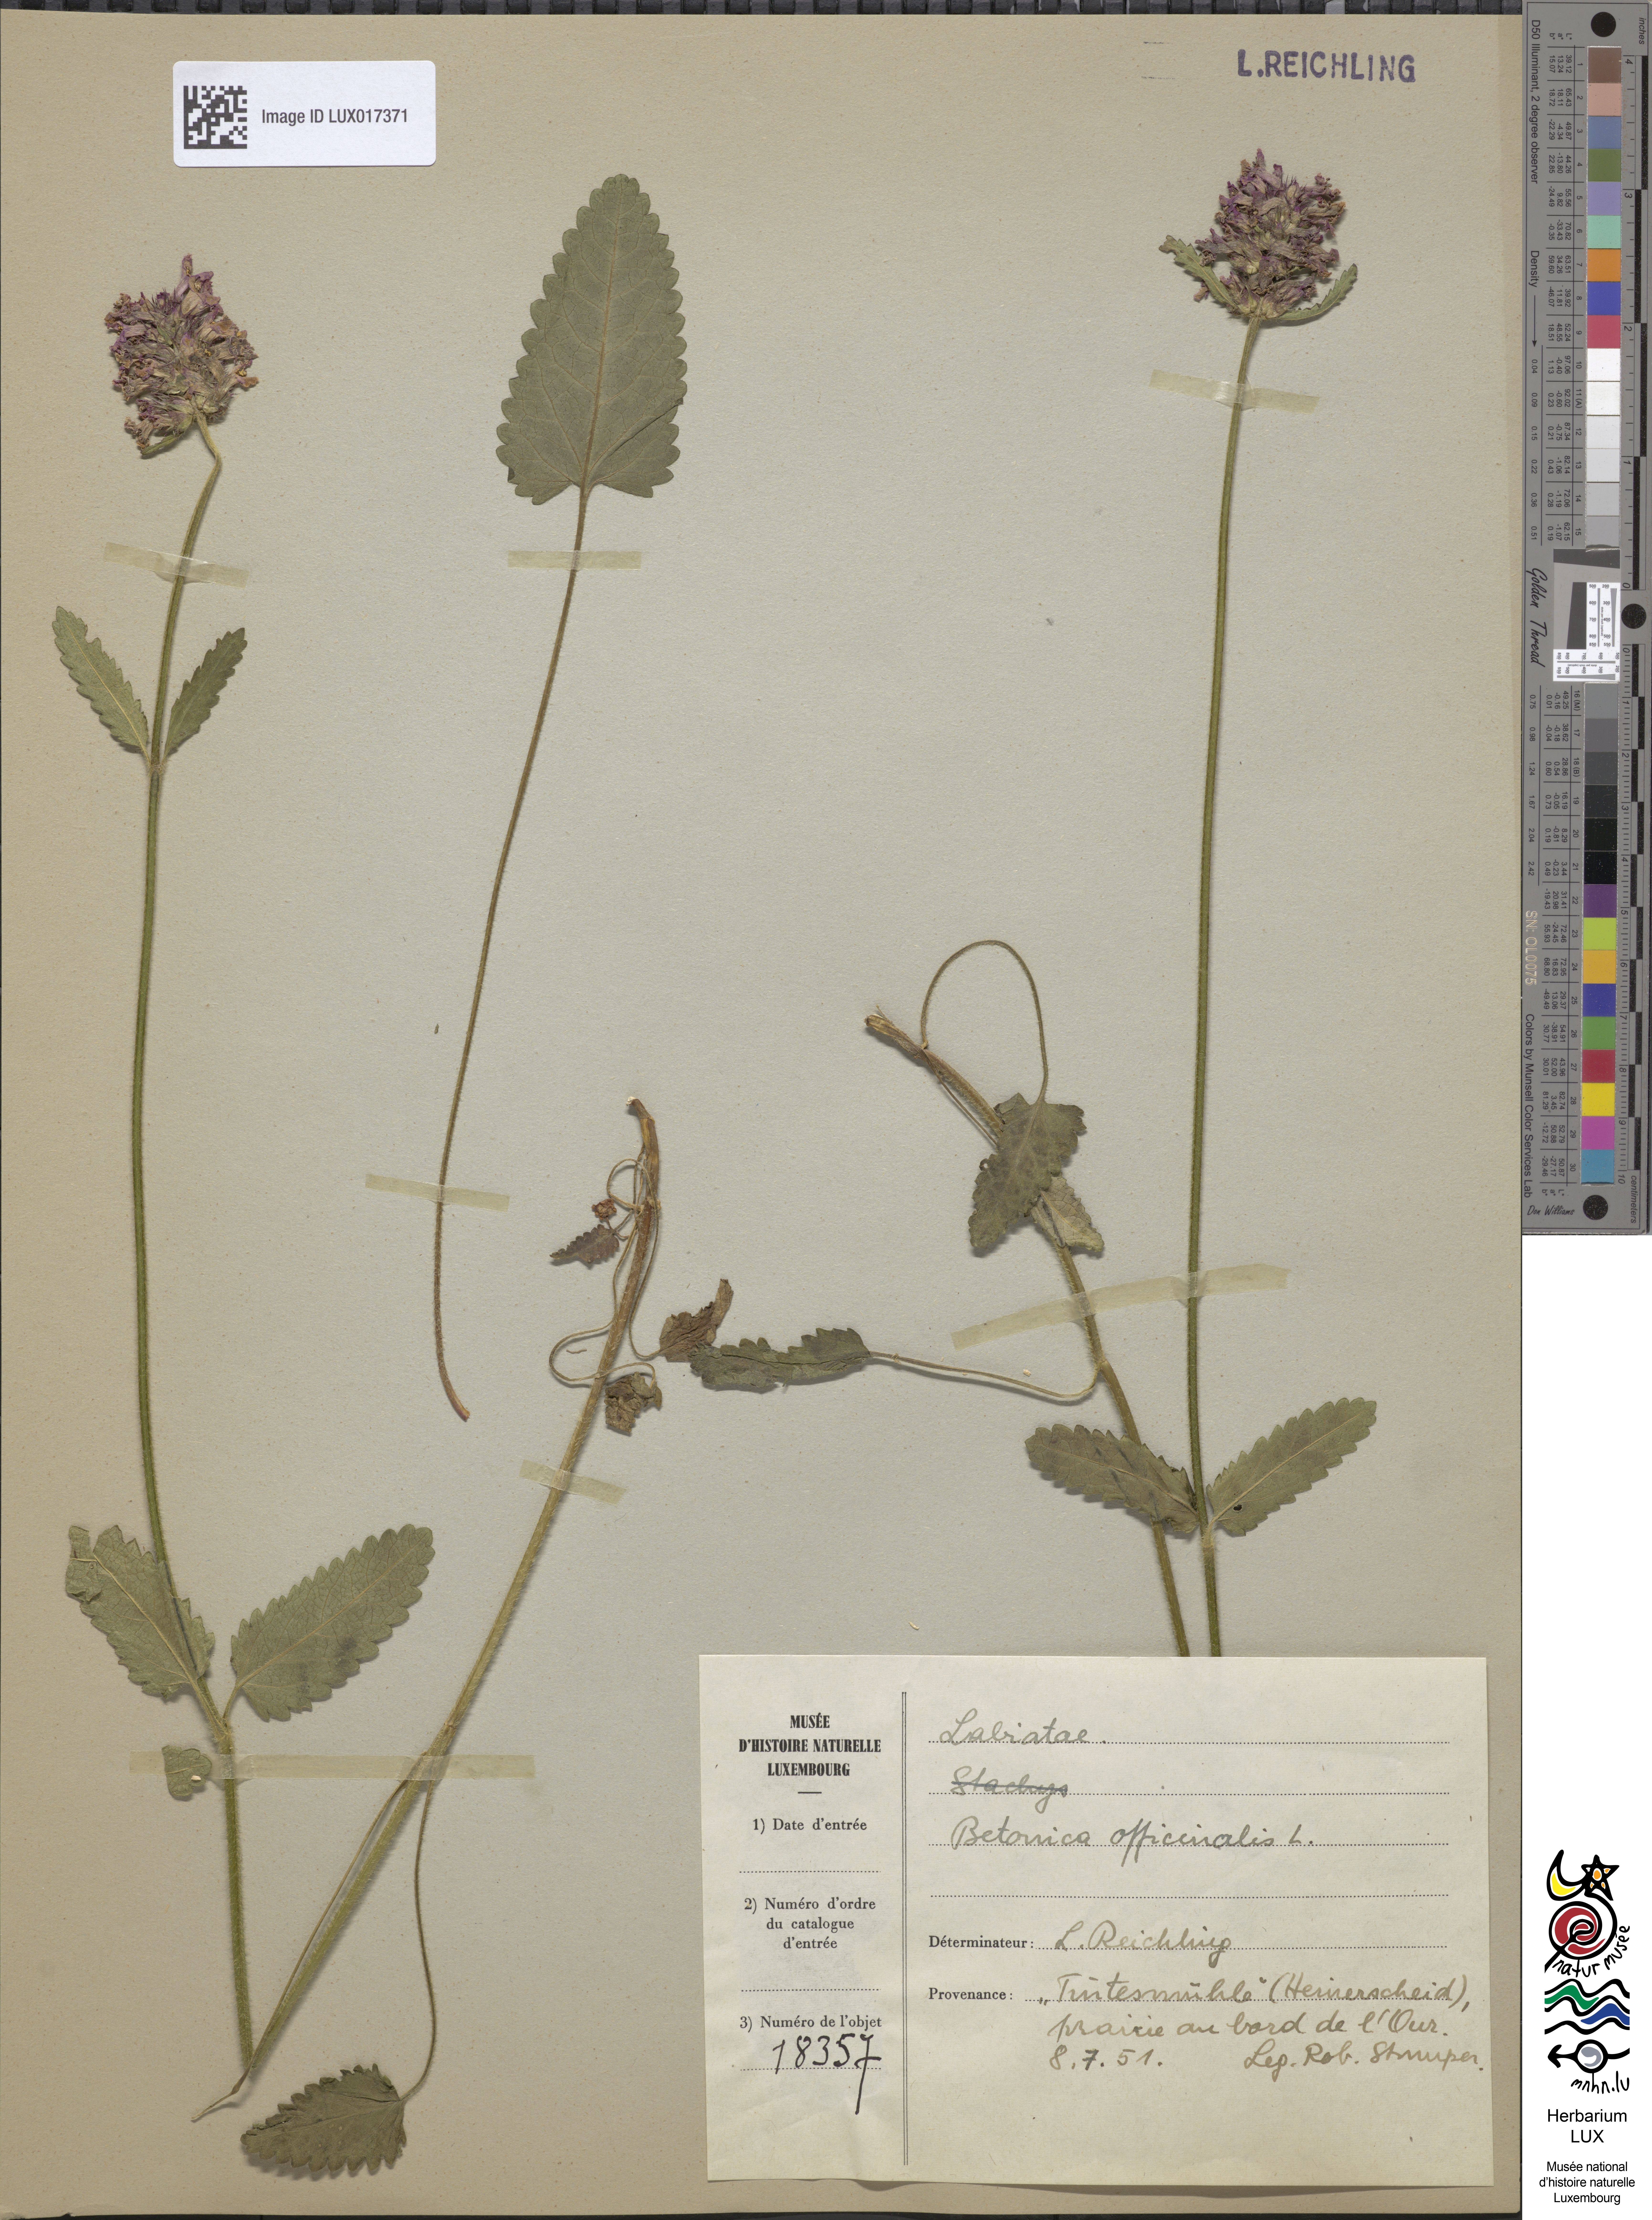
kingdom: Plantae
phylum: Tracheophyta
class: Magnoliopsida
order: Lamiales
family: Lamiaceae
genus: Betonica
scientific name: Betonica officinalis
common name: Bishop's-wort
